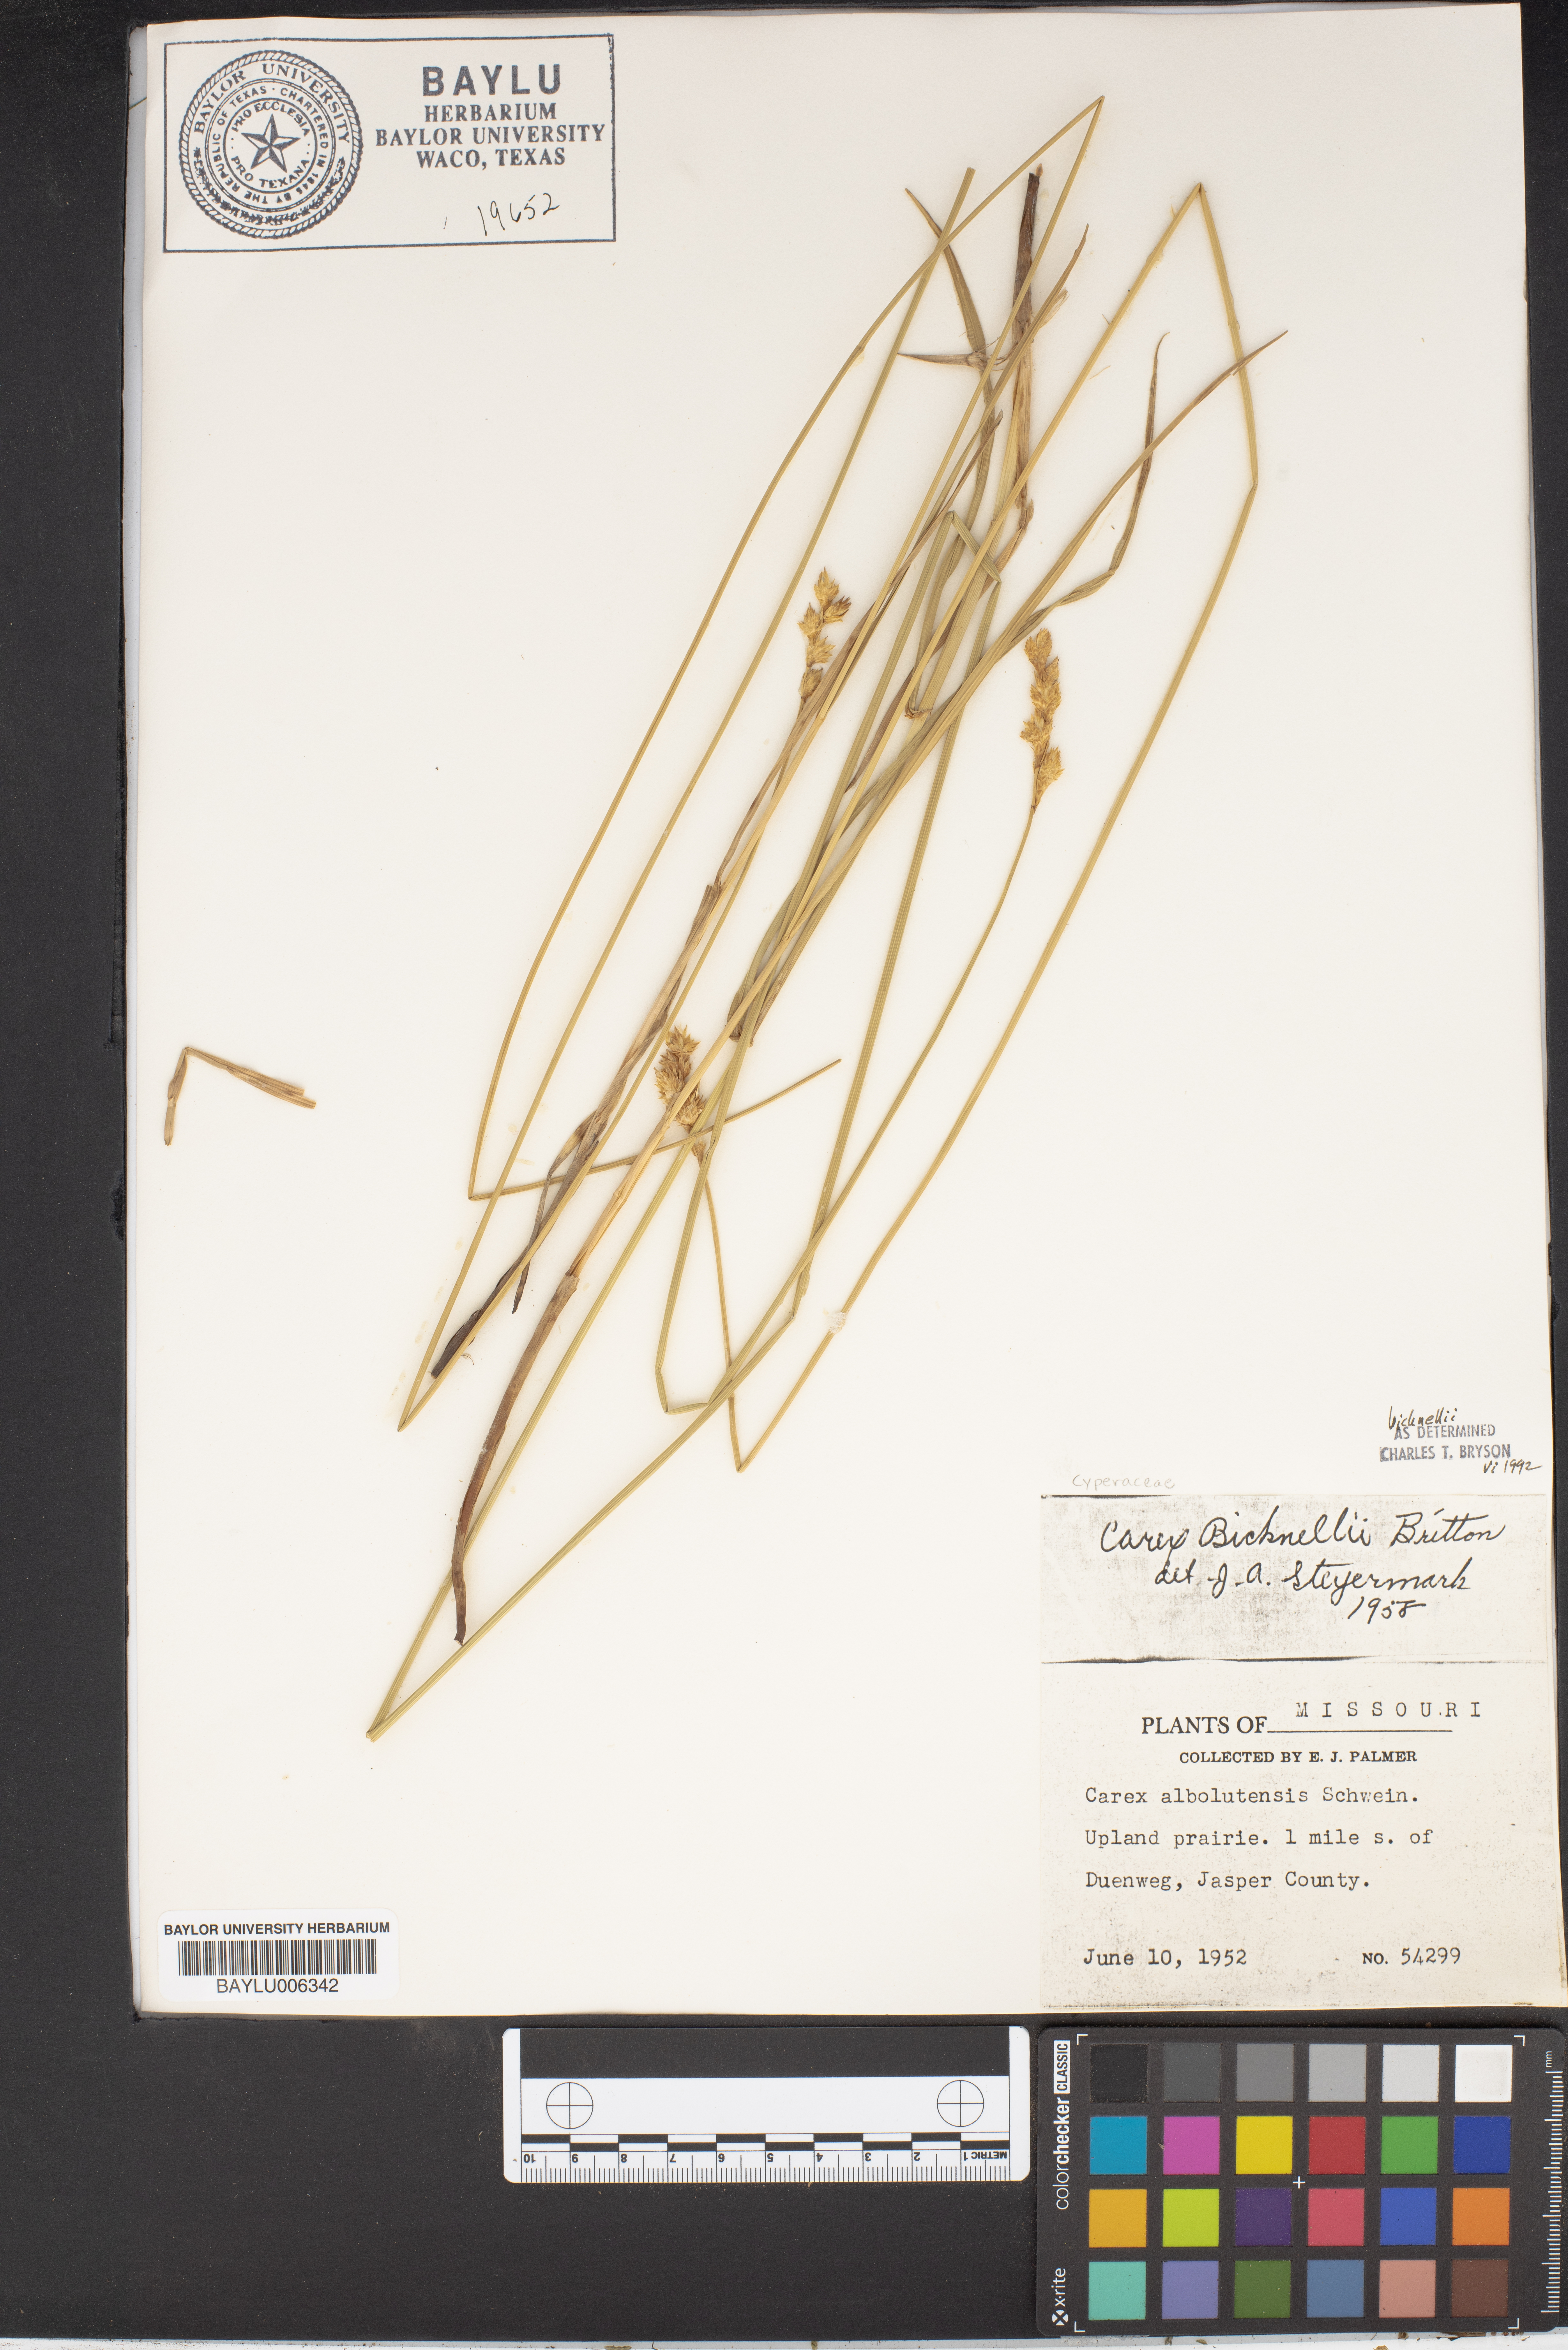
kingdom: Plantae
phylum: Tracheophyta
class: Liliopsida
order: Poales
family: Cyperaceae
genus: Carex
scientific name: Carex albolutescens
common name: Freenish white sedge
